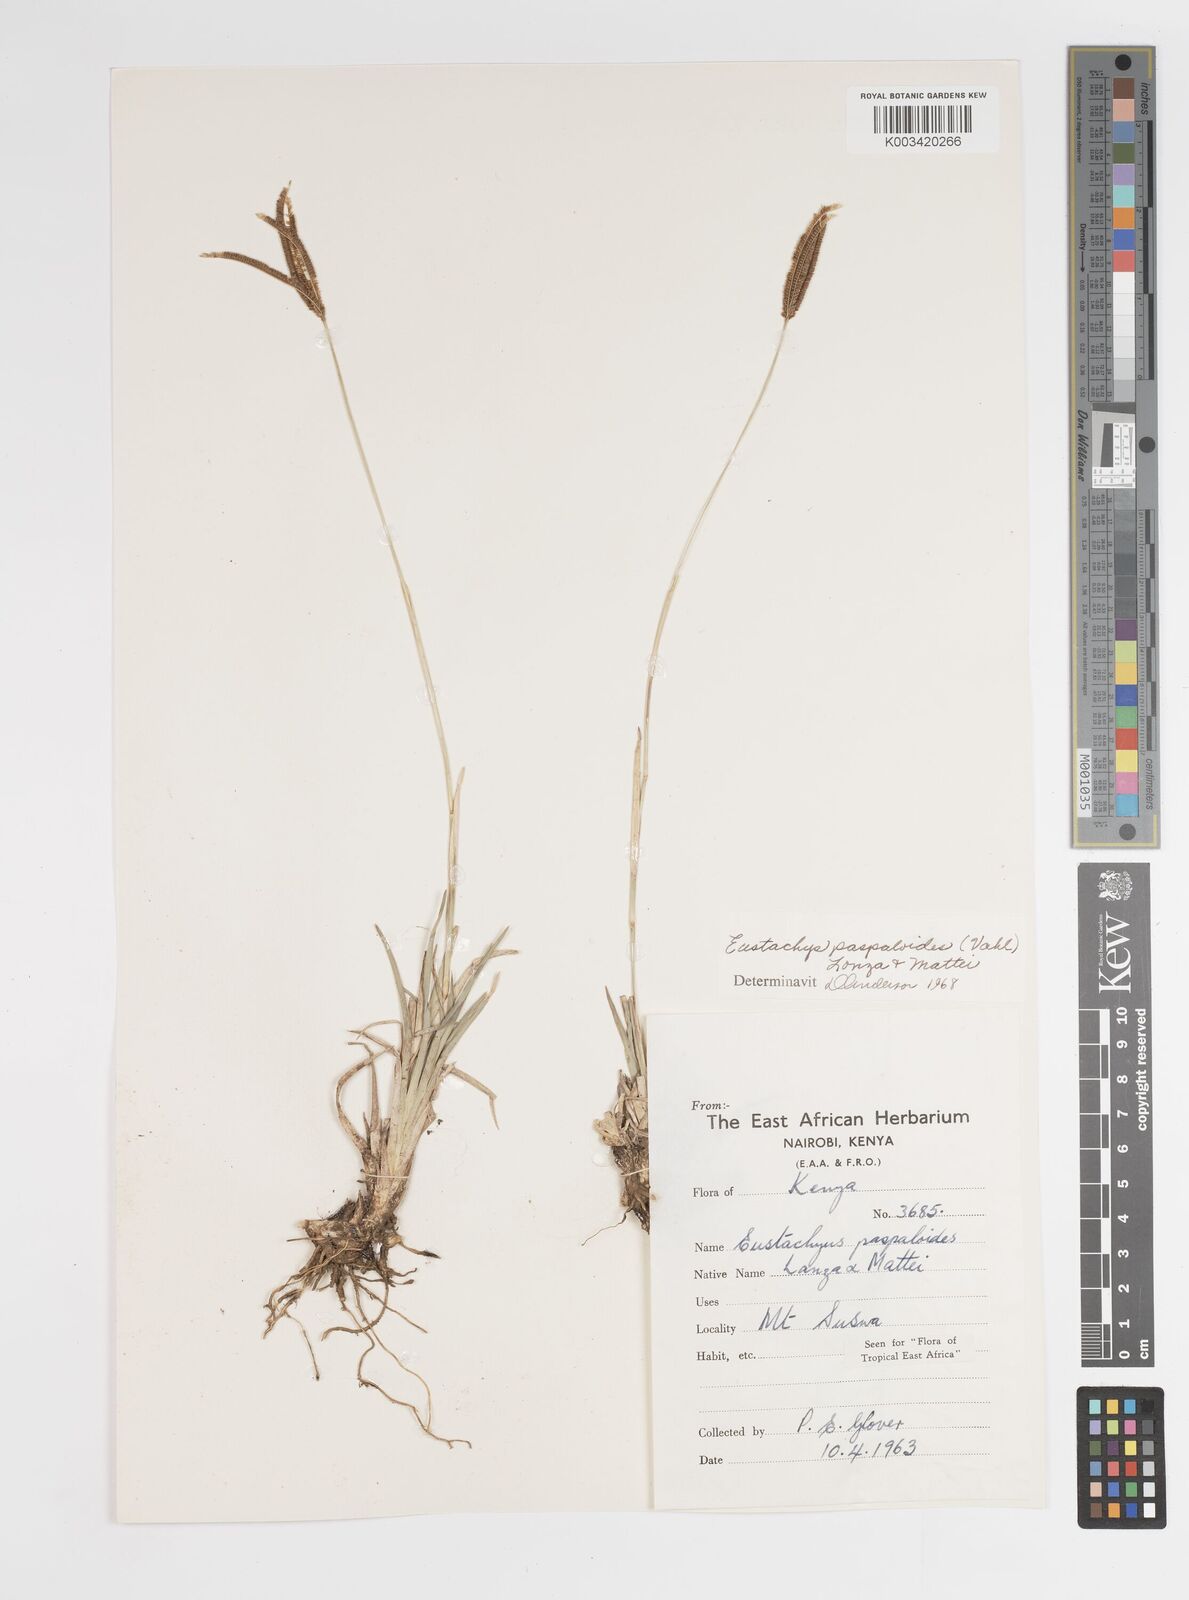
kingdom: Plantae
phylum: Tracheophyta
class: Liliopsida
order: Poales
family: Poaceae
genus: Eustachys
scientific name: Eustachys paspaloides
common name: Caribbean fingergrass
